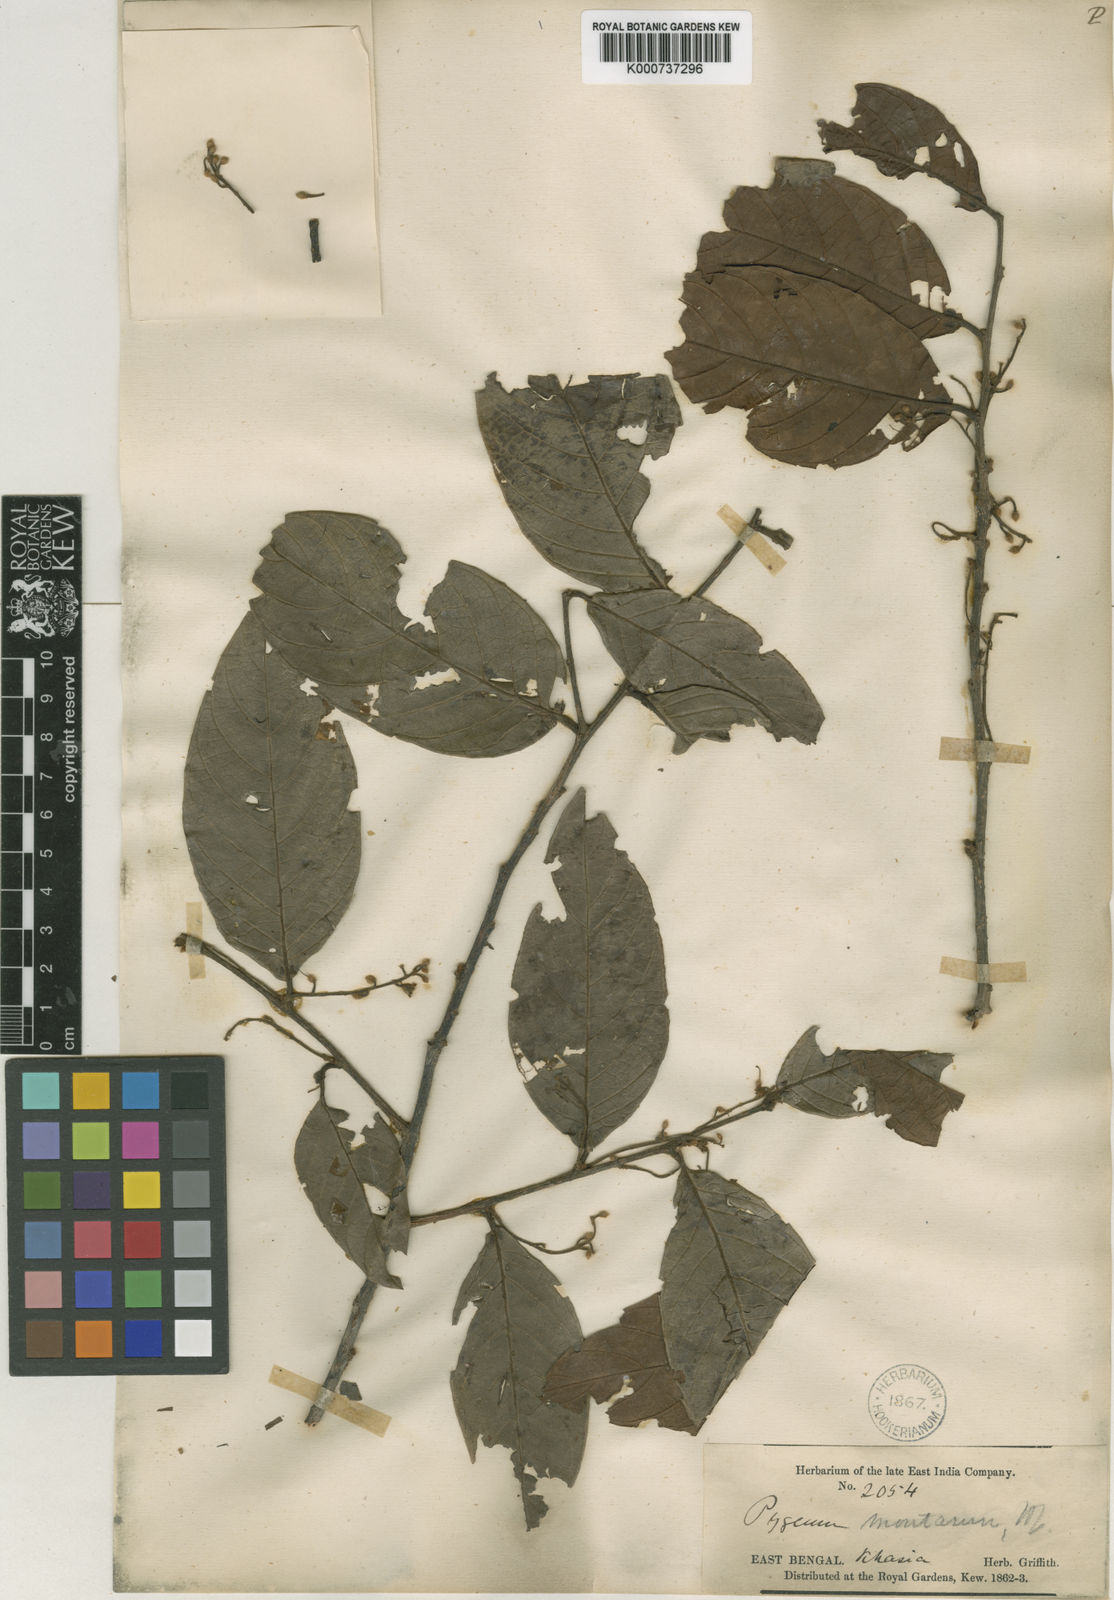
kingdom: Plantae
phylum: Tracheophyta
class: Magnoliopsida
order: Rosales
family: Rosaceae
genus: Prunus
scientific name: Prunus arborea
